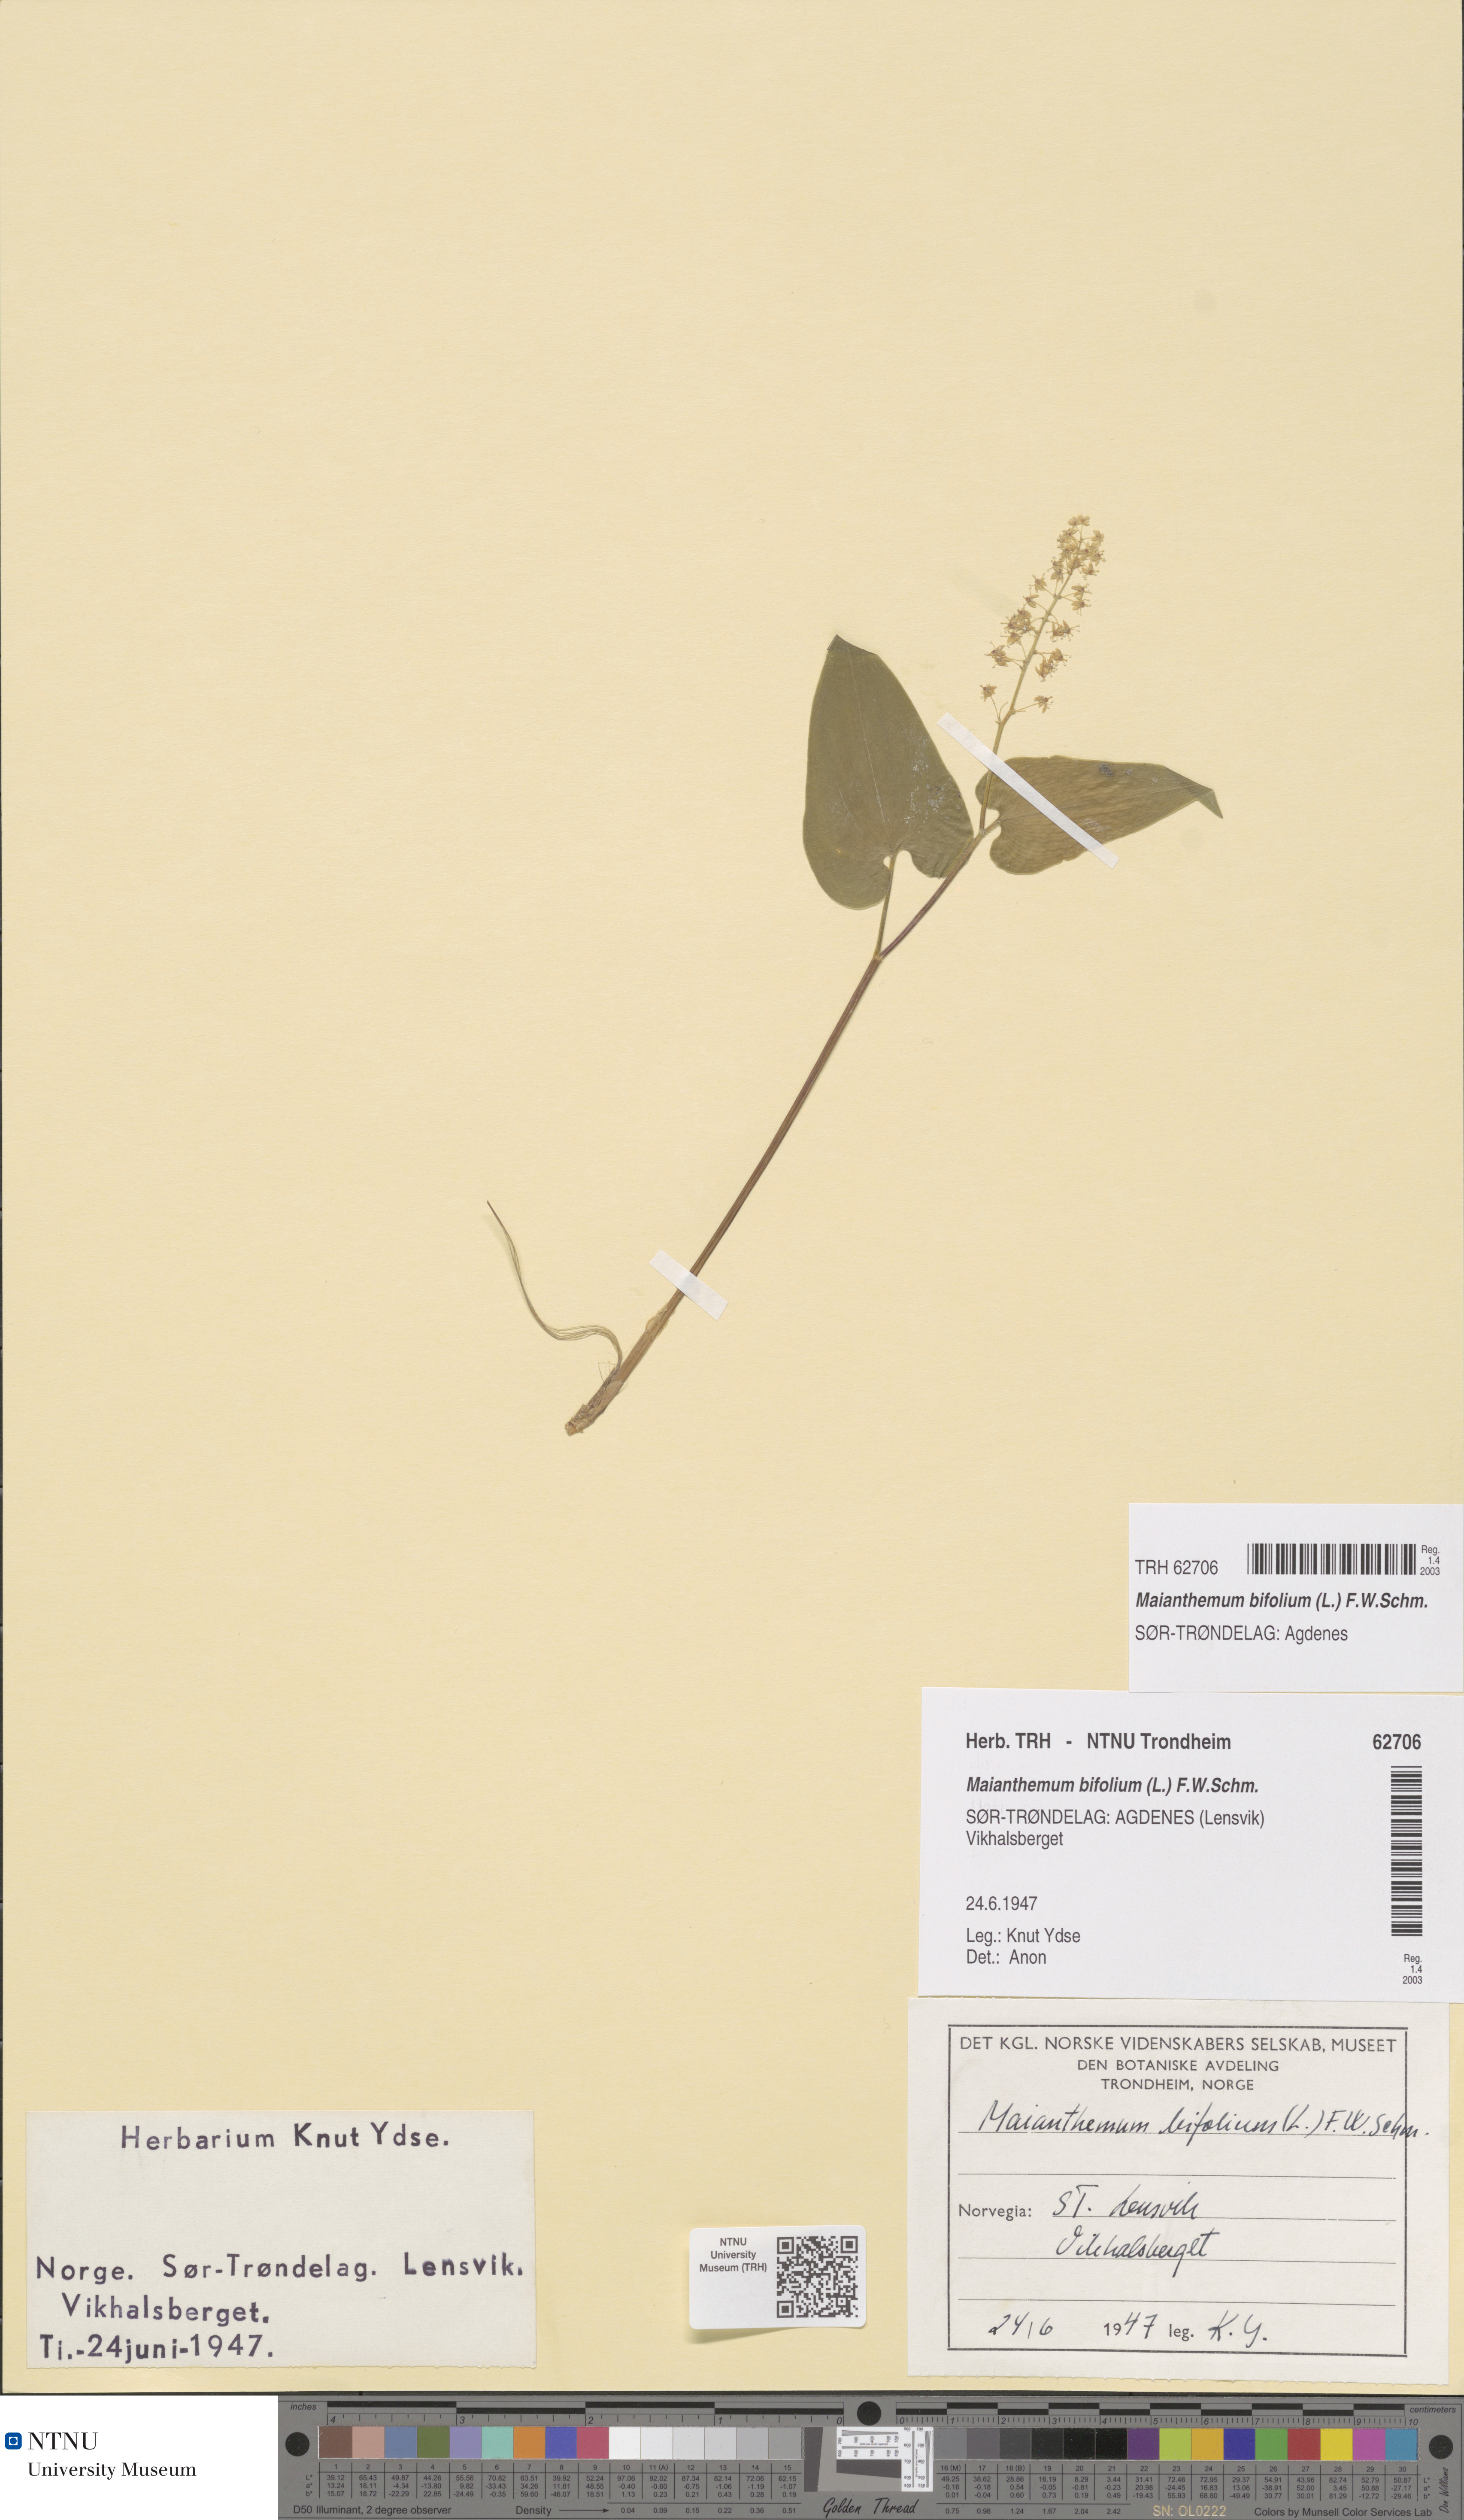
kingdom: Plantae
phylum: Tracheophyta
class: Liliopsida
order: Asparagales
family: Asparagaceae
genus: Maianthemum
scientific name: Maianthemum bifolium
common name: May lily
